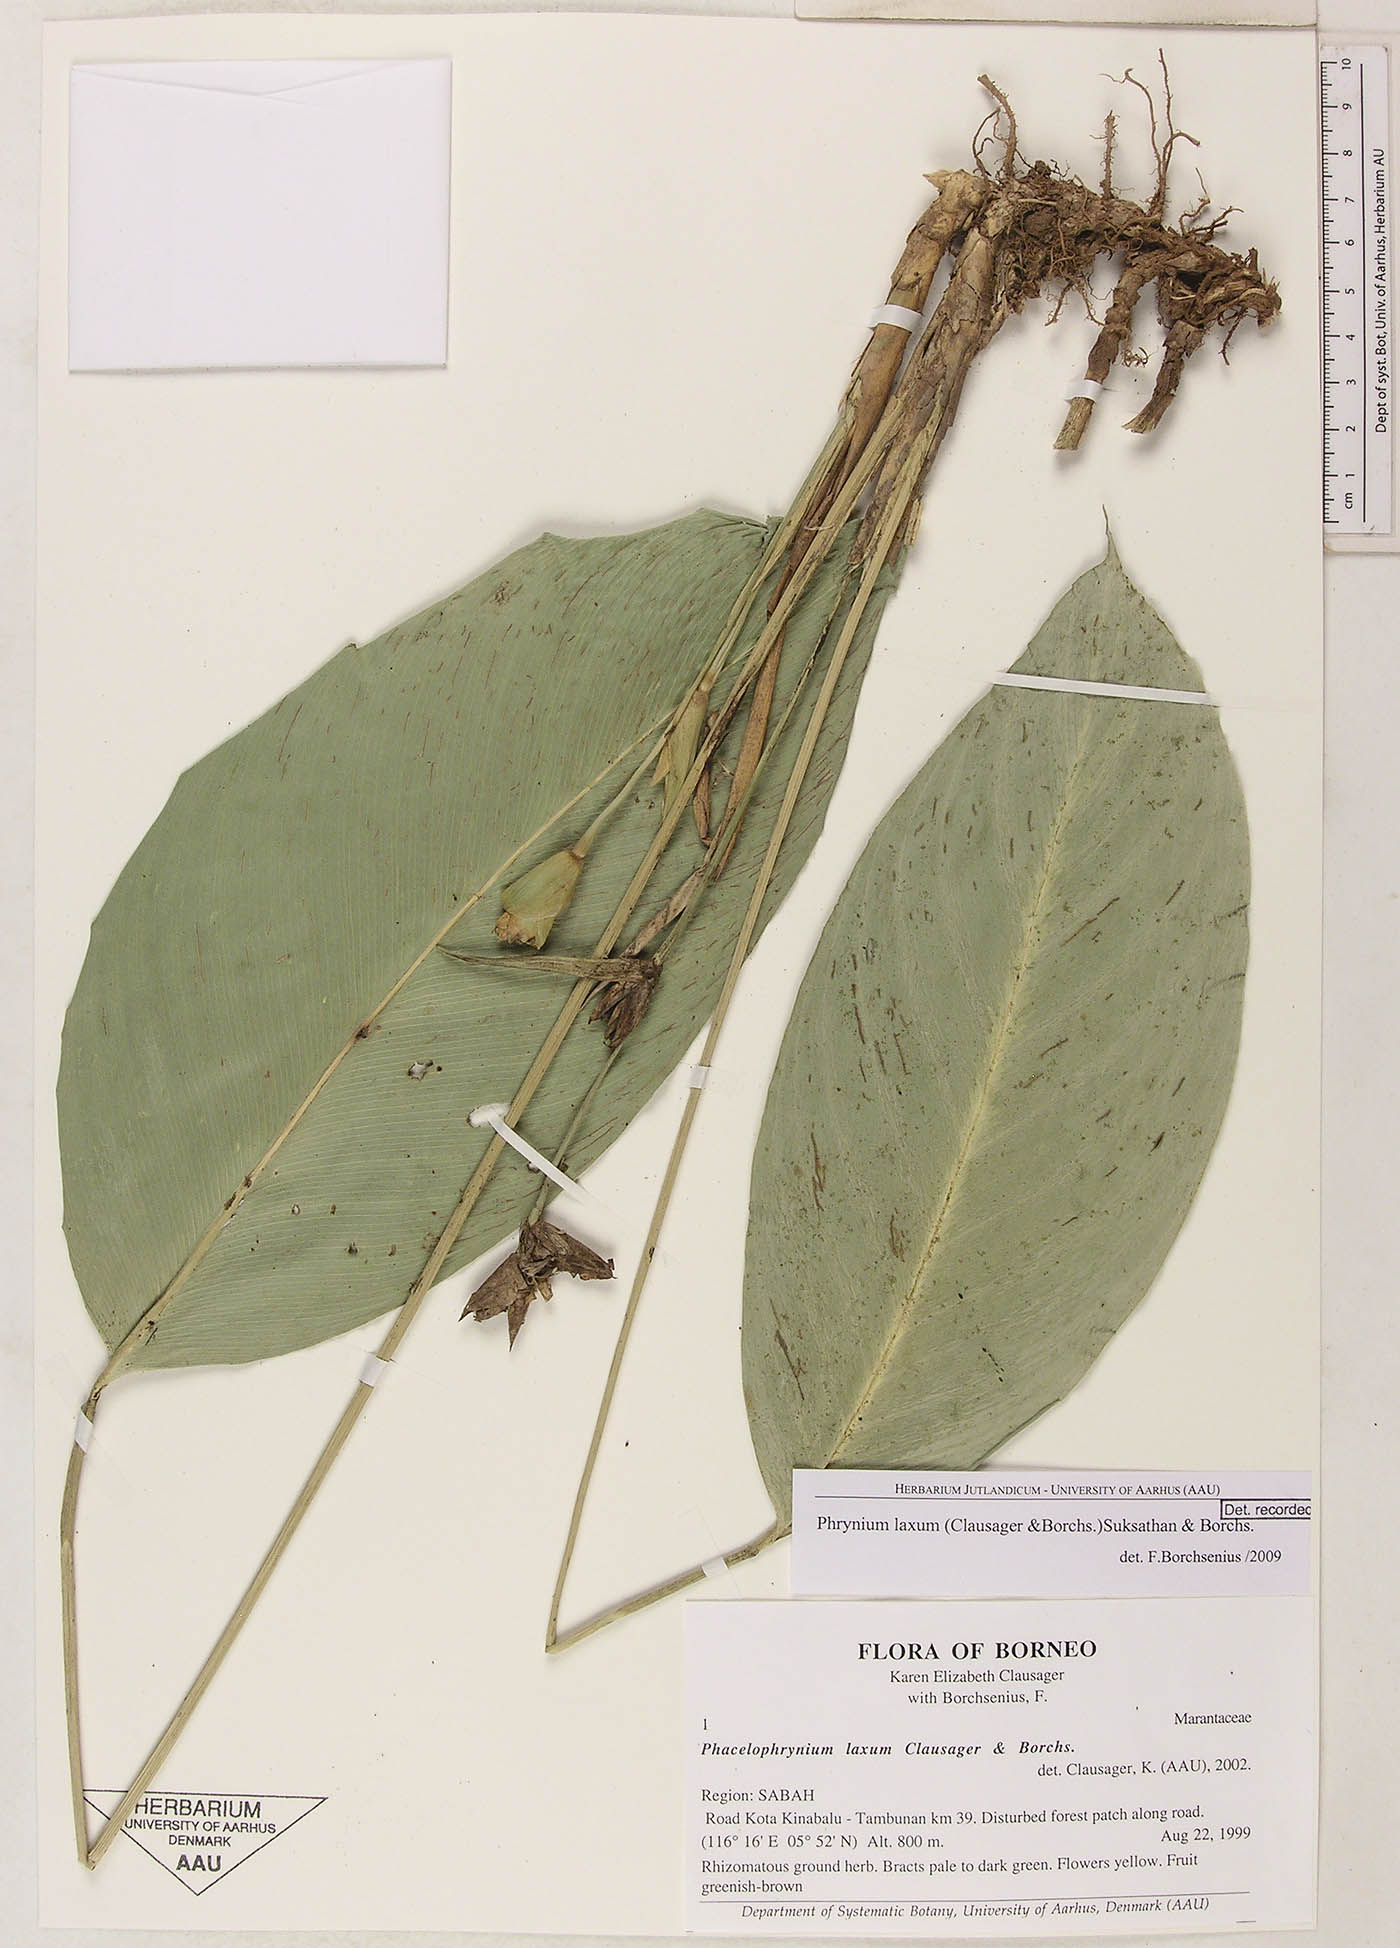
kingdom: Plantae
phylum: Tracheophyta
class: Liliopsida
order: Zingiberales
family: Marantaceae
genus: Phrynium
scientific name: Phrynium laxum
